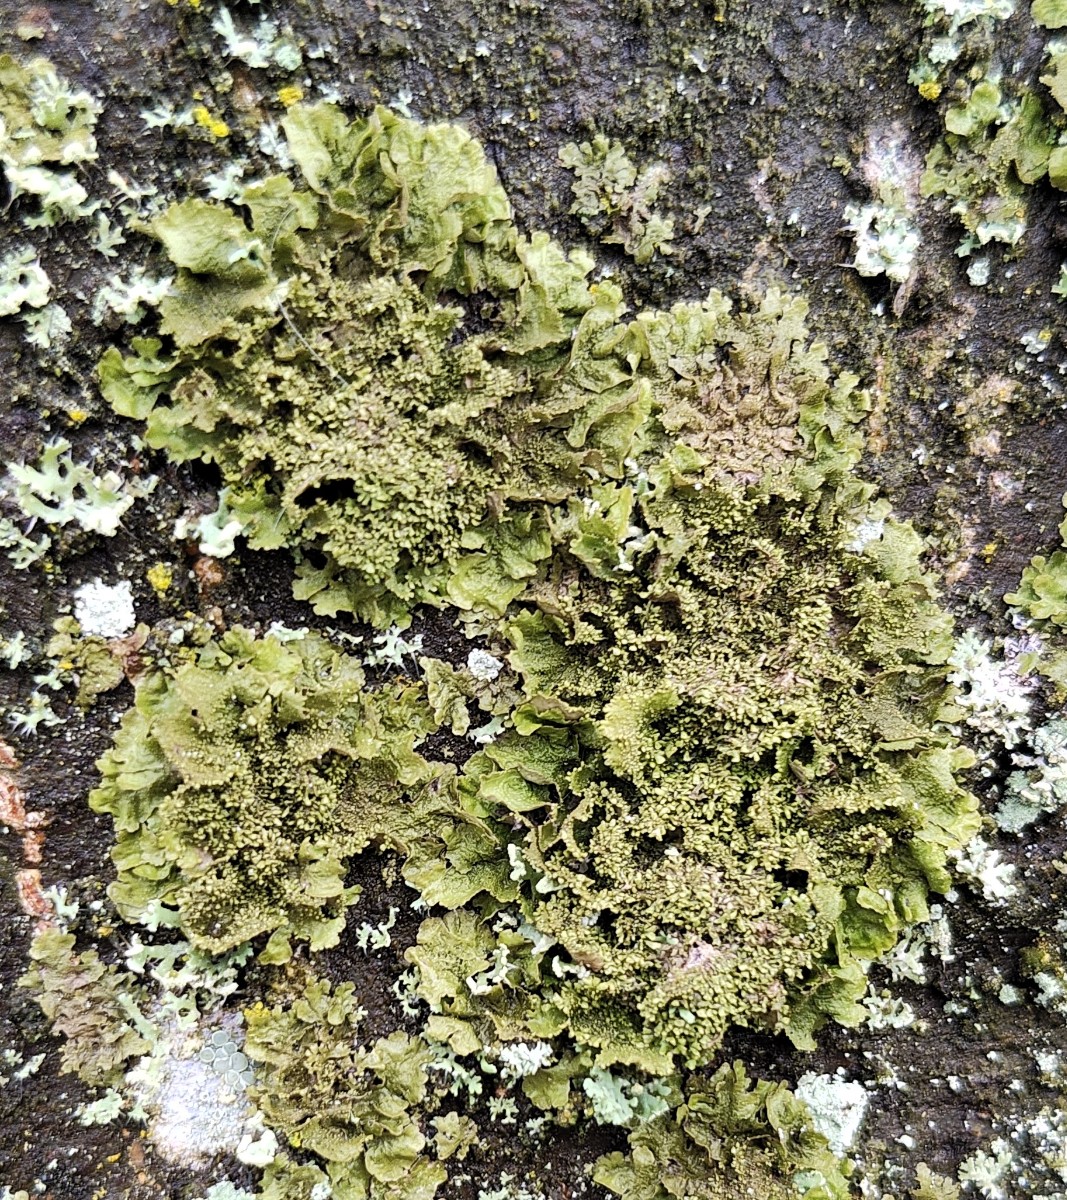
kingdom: Fungi
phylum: Ascomycota
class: Lecanoromycetes
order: Lecanorales
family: Parmeliaceae
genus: Melanohalea
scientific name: Melanohalea exasperatula
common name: kølle-skållav
